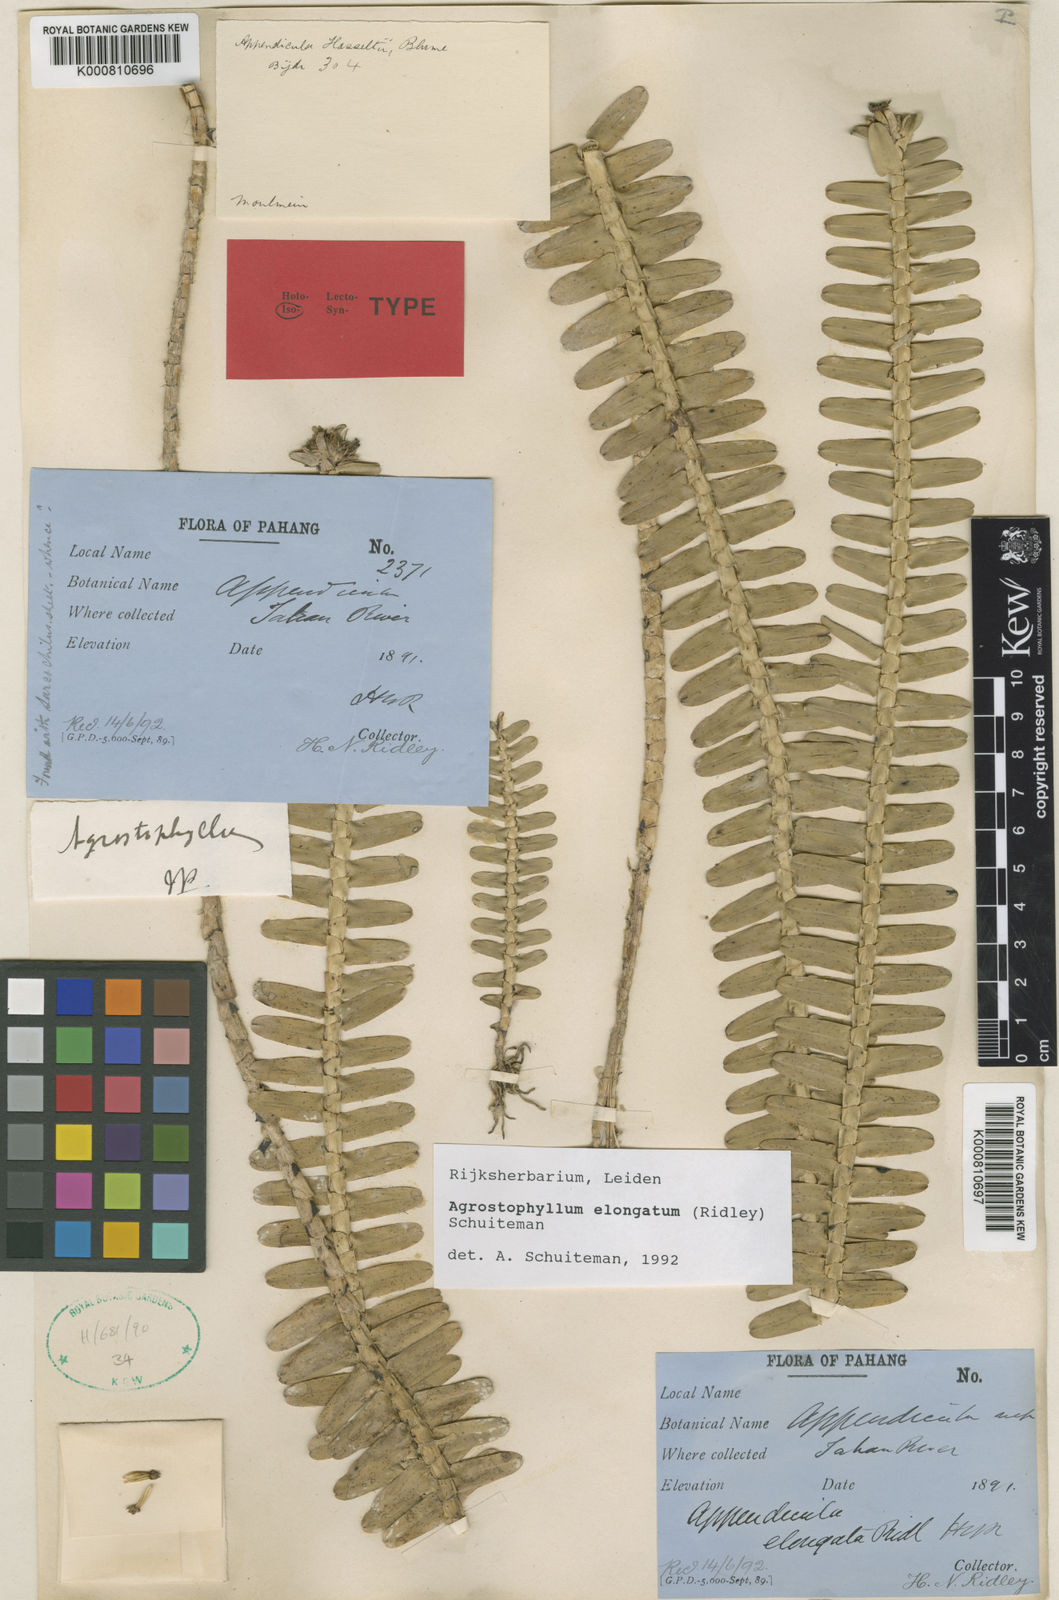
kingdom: Plantae
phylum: Tracheophyta
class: Liliopsida
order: Asparagales
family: Orchidaceae
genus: Agrostophyllum
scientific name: Agrostophyllum elongatum
